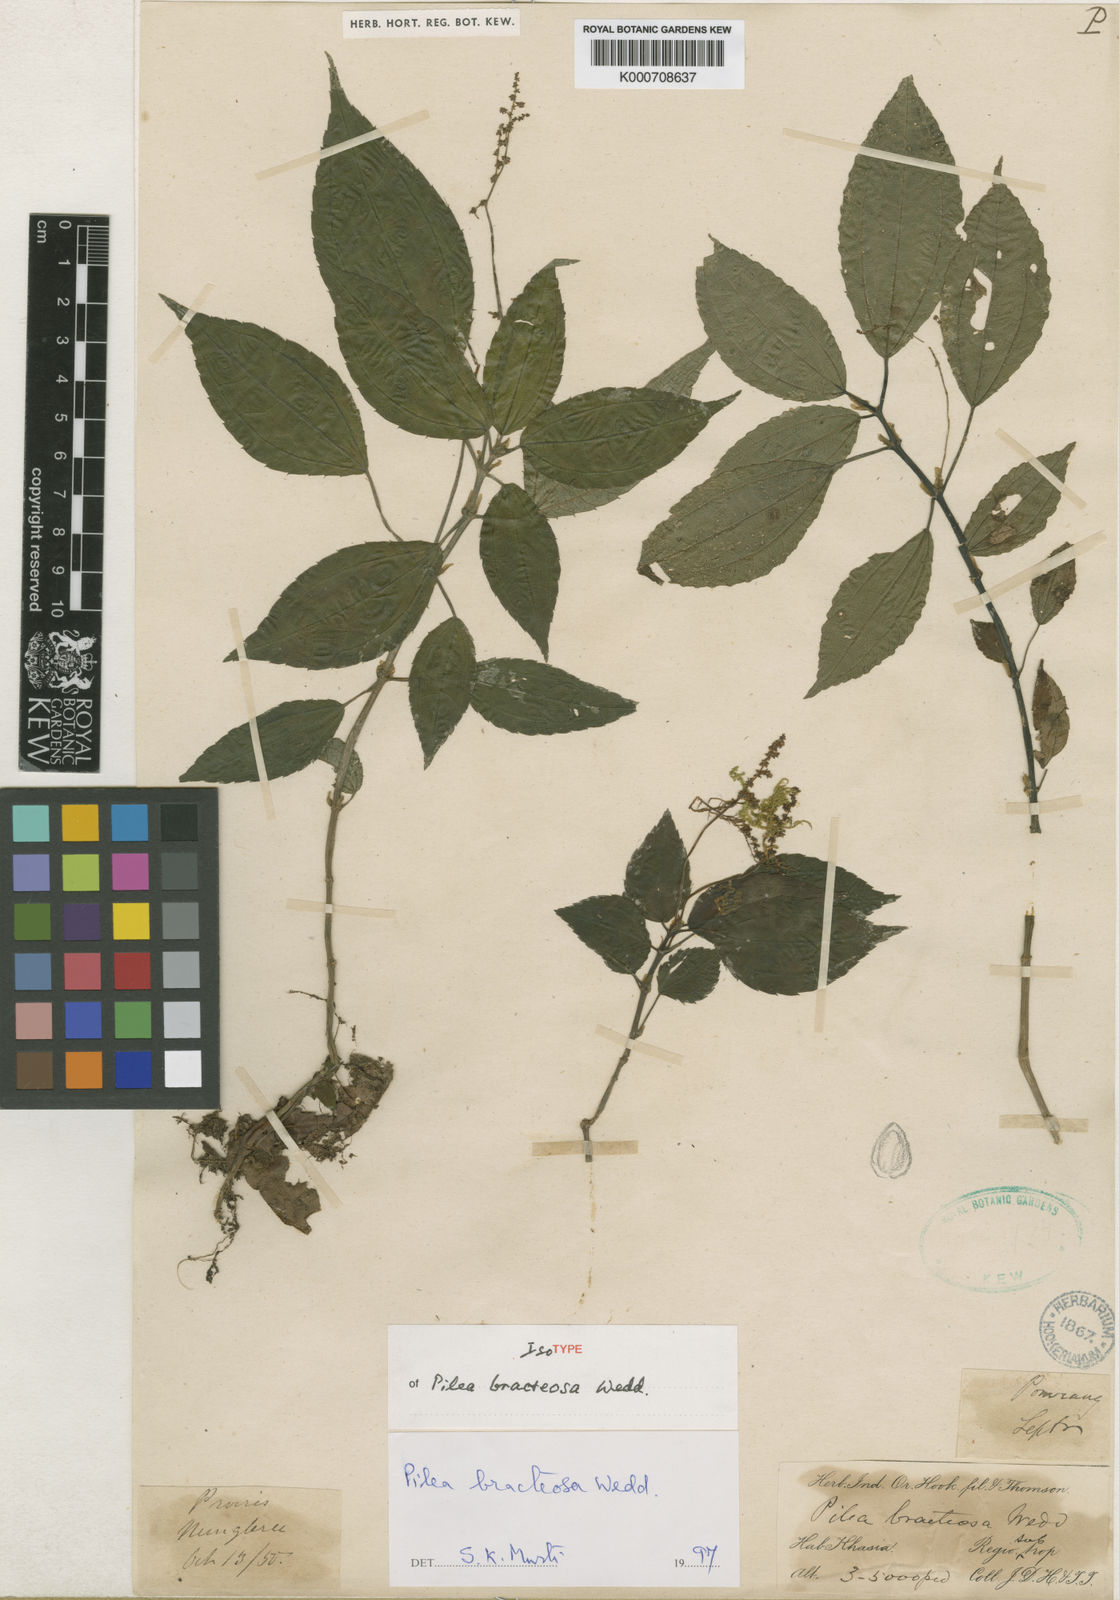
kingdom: Plantae
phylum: Tracheophyta
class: Magnoliopsida
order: Rosales
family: Urticaceae
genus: Pilea
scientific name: Pilea bracteosa
